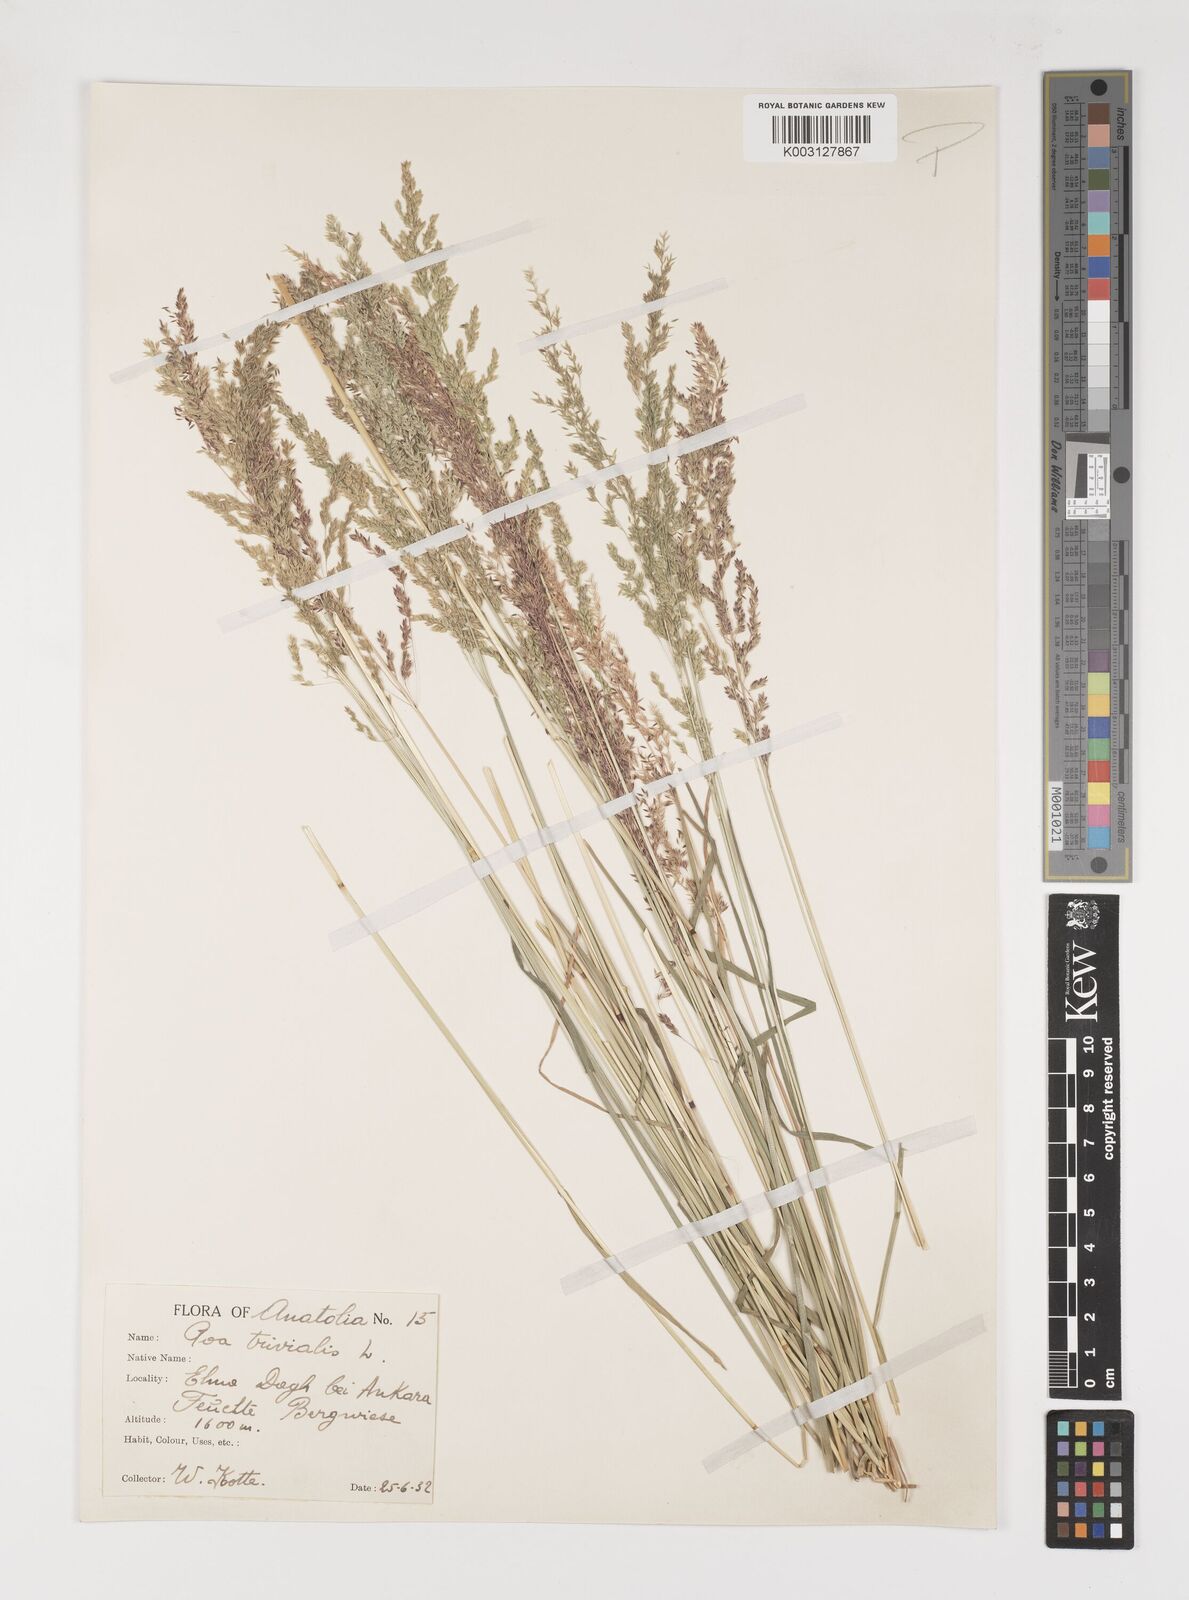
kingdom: Plantae
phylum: Tracheophyta
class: Liliopsida
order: Poales
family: Poaceae
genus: Poa
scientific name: Poa trivialis
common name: Rough bluegrass
